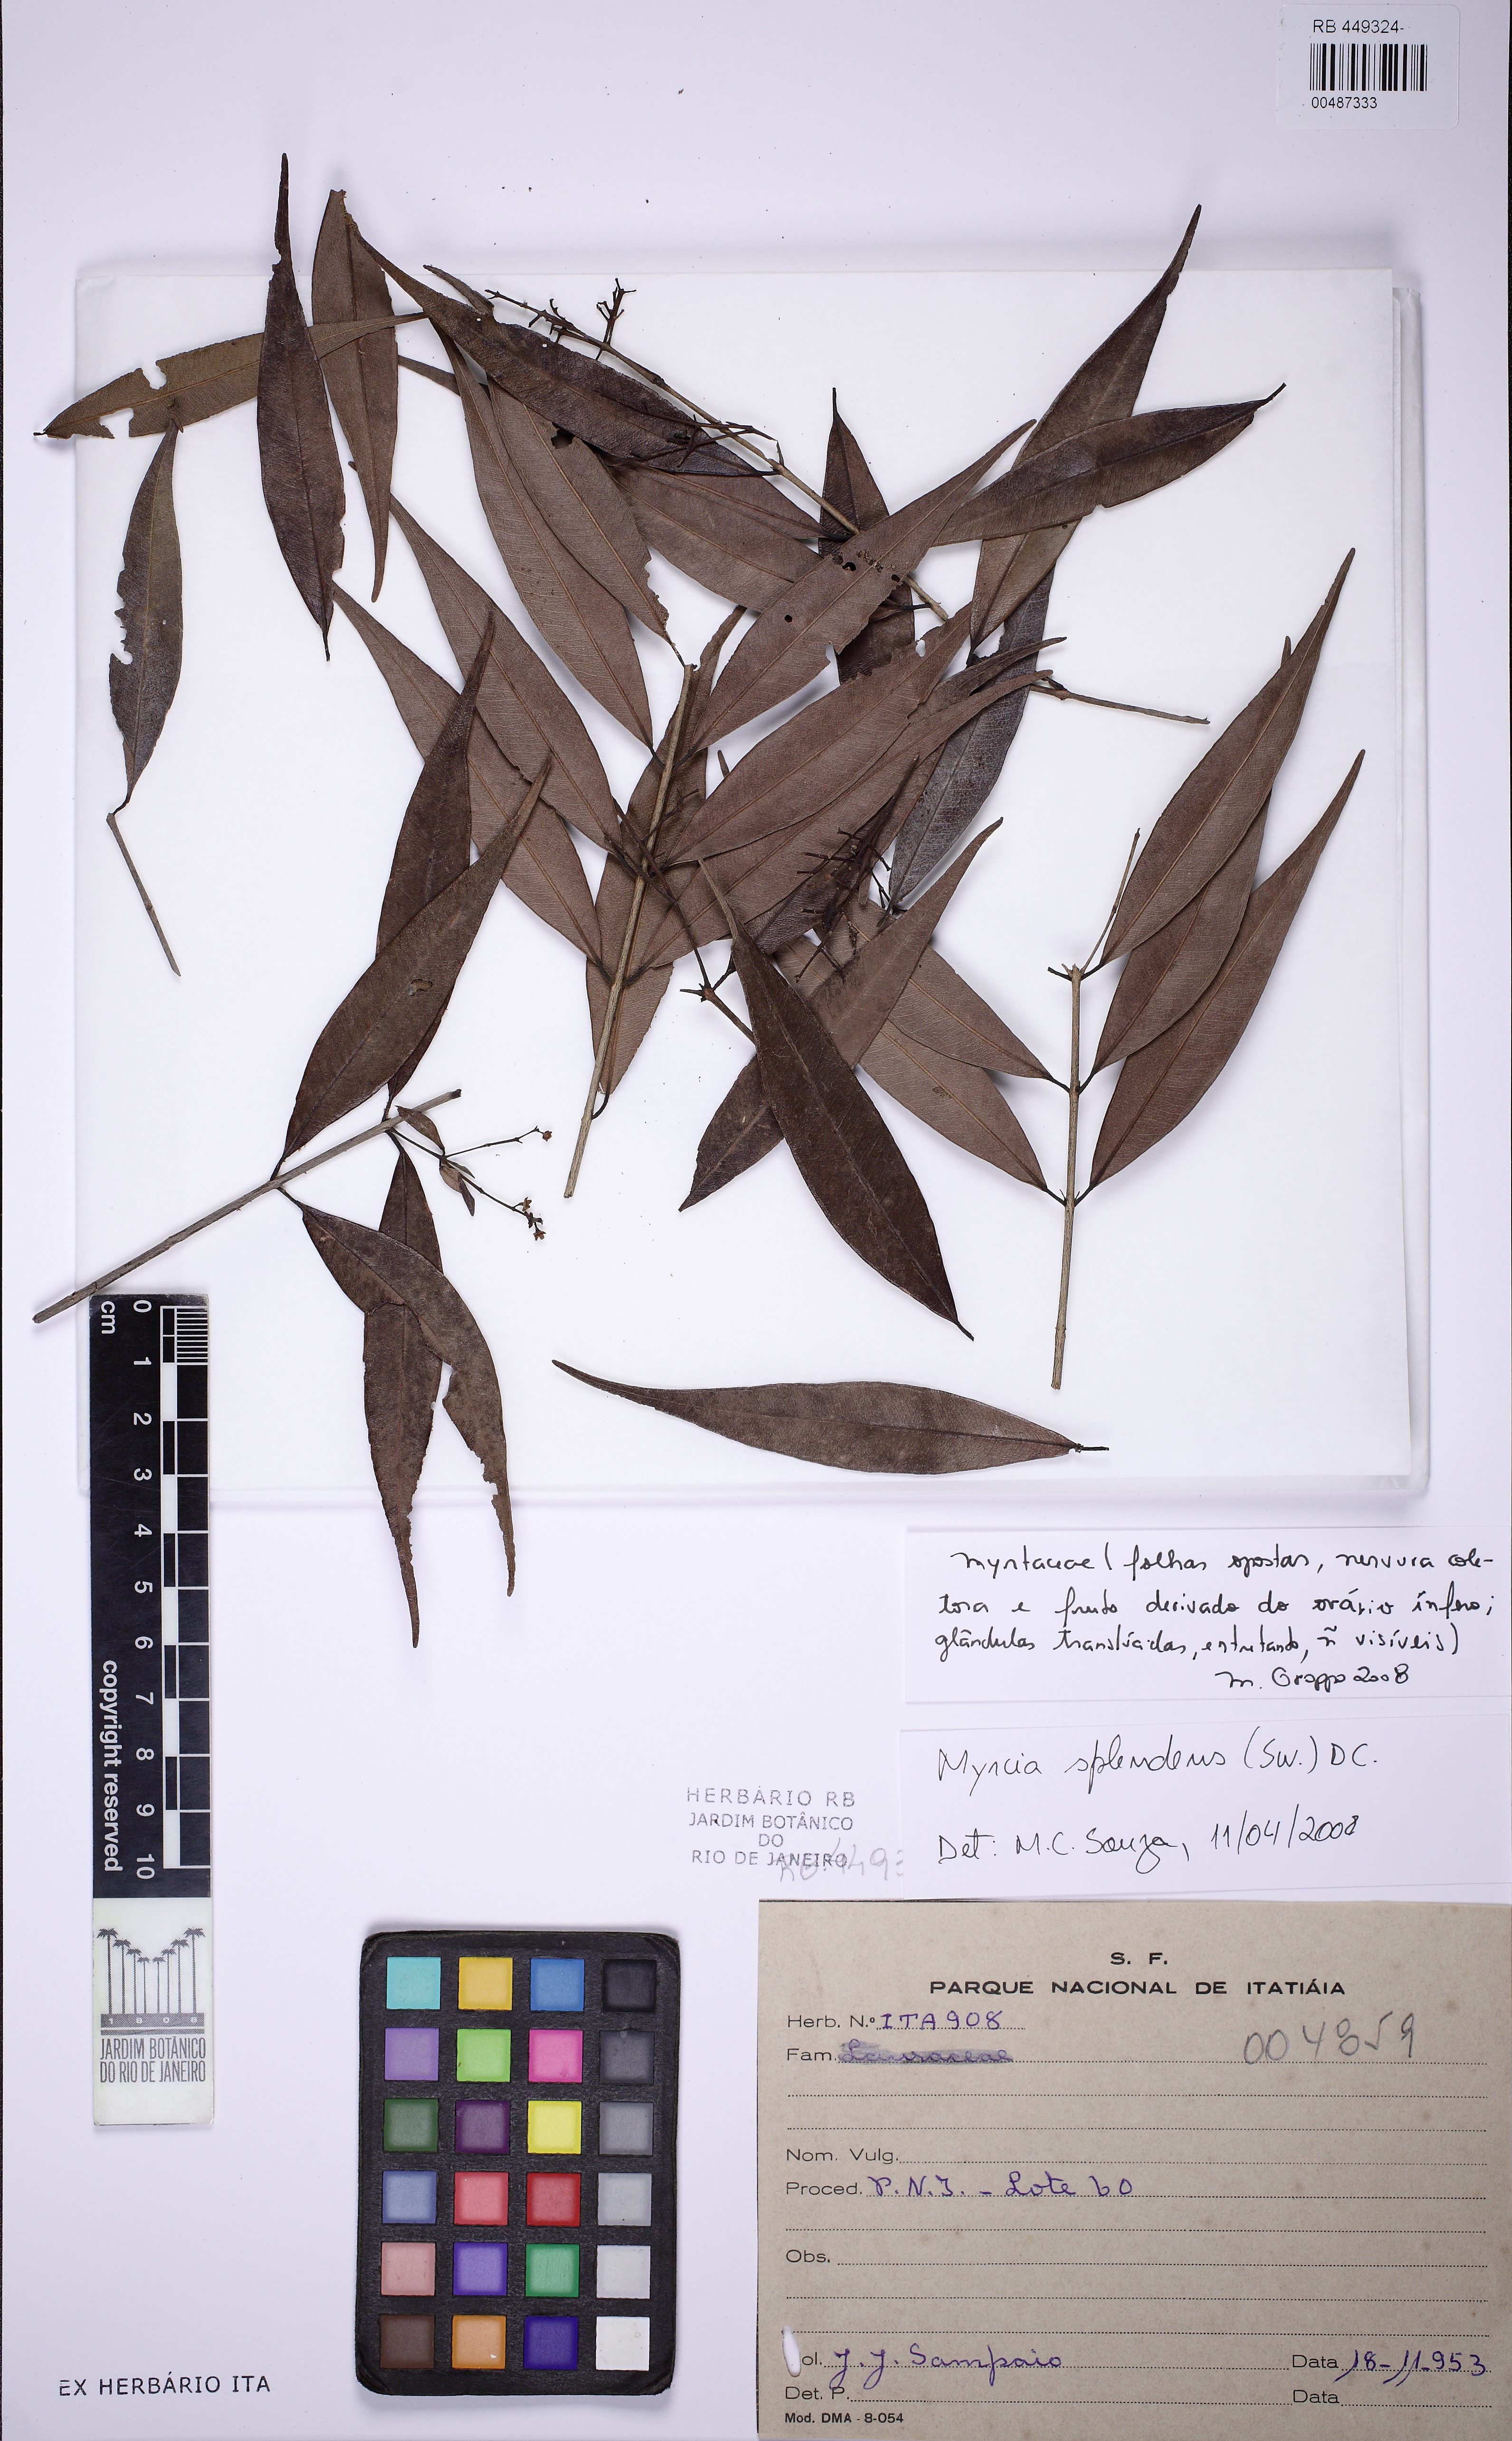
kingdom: Plantae
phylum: Tracheophyta
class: Magnoliopsida
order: Myrtales
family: Myrtaceae
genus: Myrcia
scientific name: Myrcia splendens
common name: Surinam cherry
